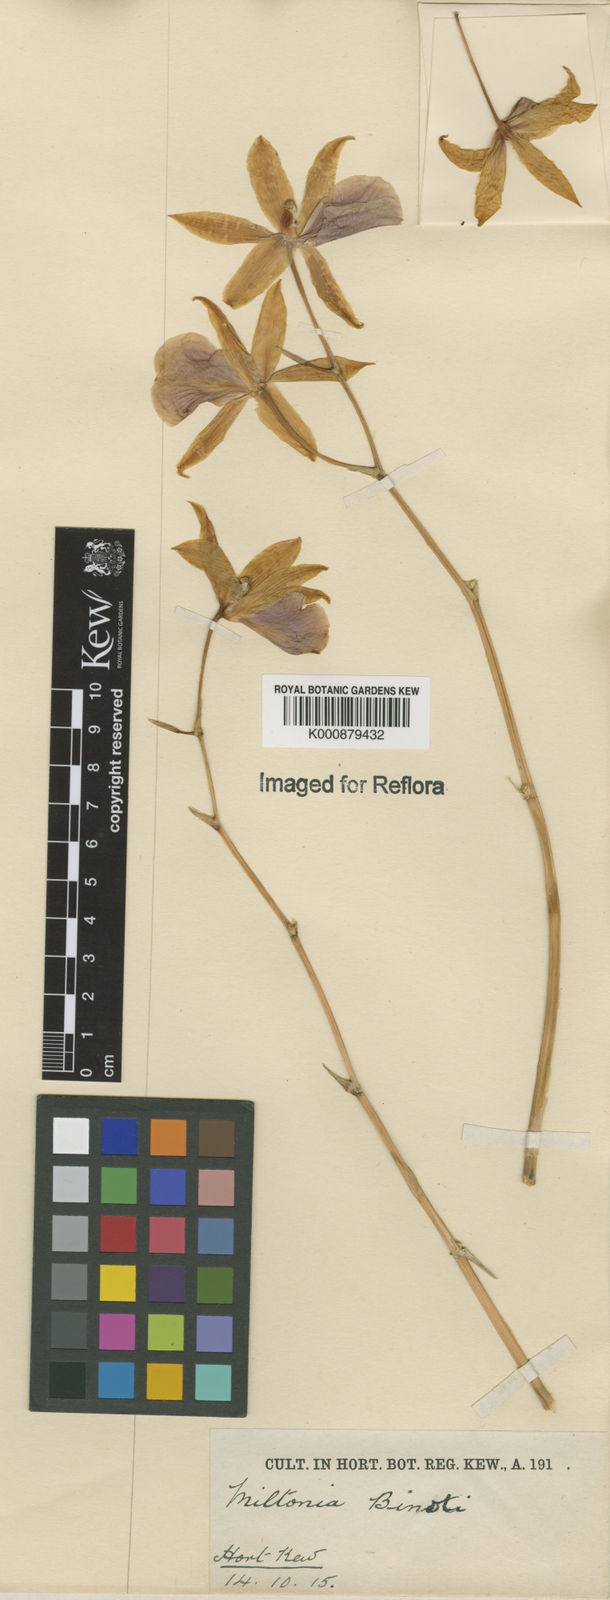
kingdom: Plantae
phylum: Tracheophyta
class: Liliopsida
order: Asparagales
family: Orchidaceae
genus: Miltonia
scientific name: Miltonia binotii
